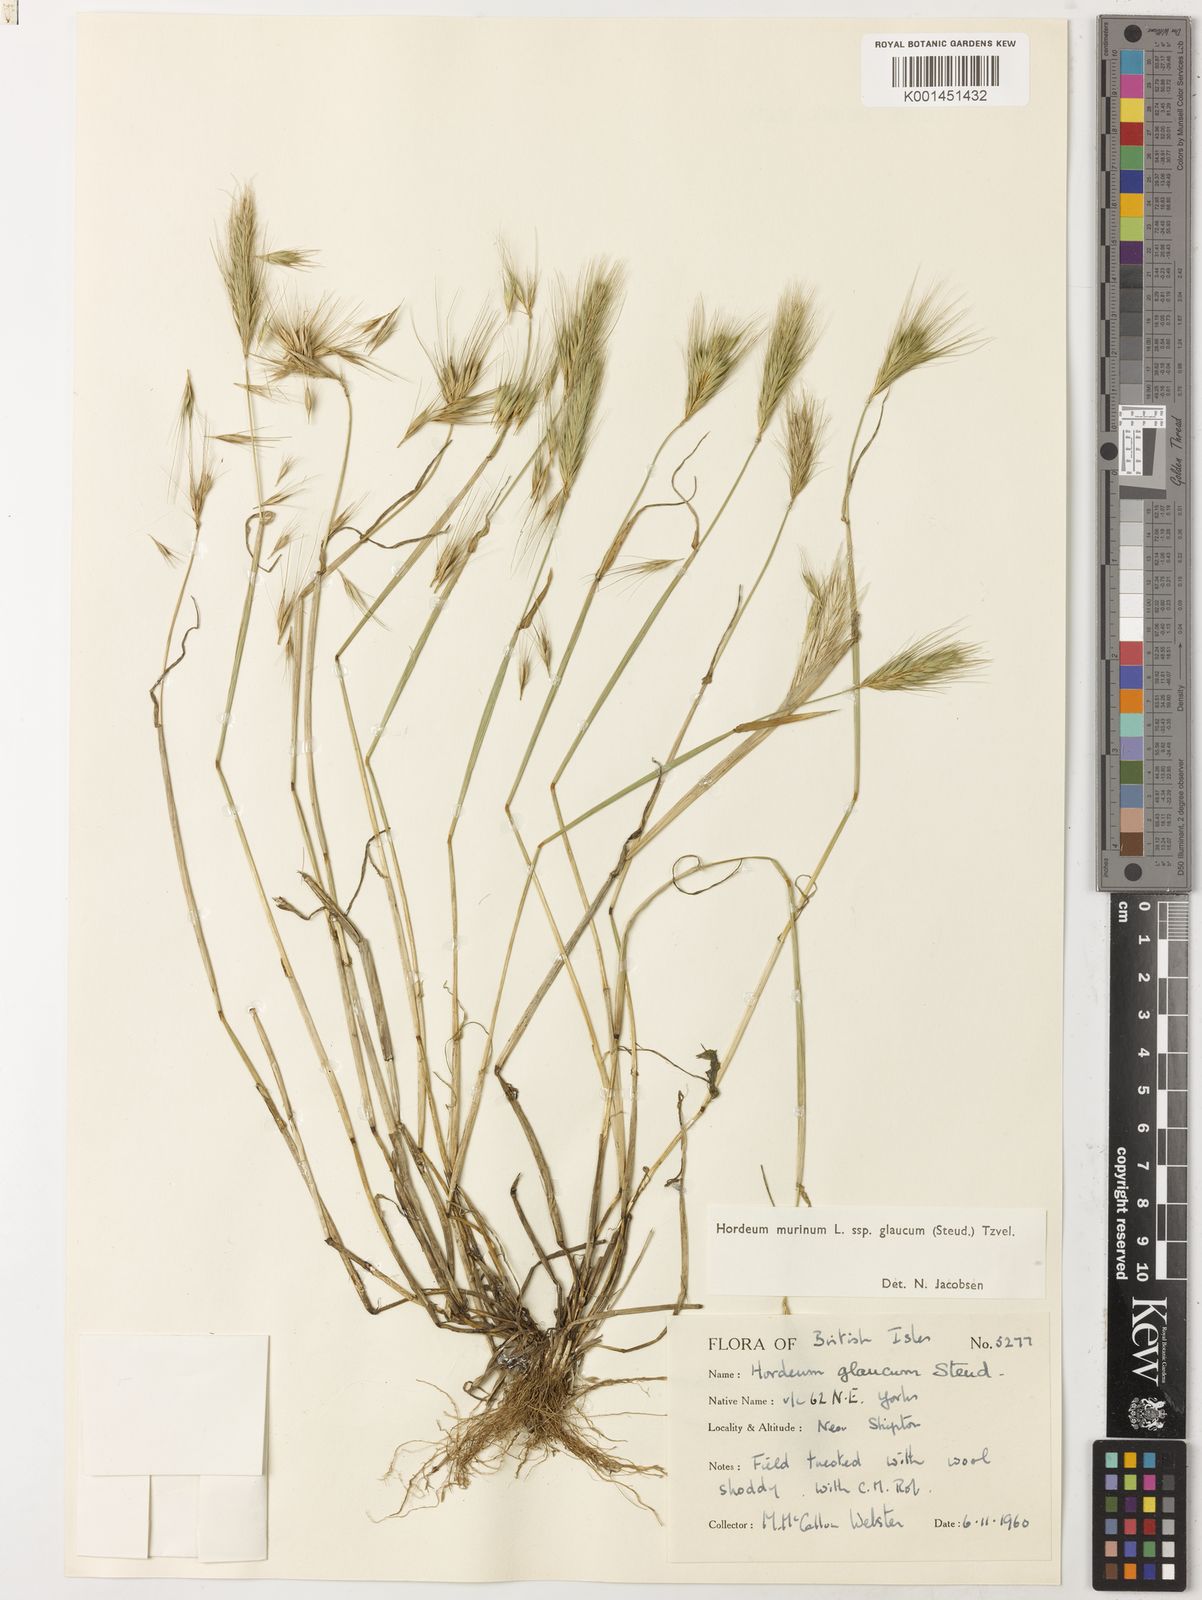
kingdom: Plantae
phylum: Tracheophyta
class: Liliopsida
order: Poales
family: Poaceae
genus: Hordeum
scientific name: Hordeum murinum
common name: Wall barley
